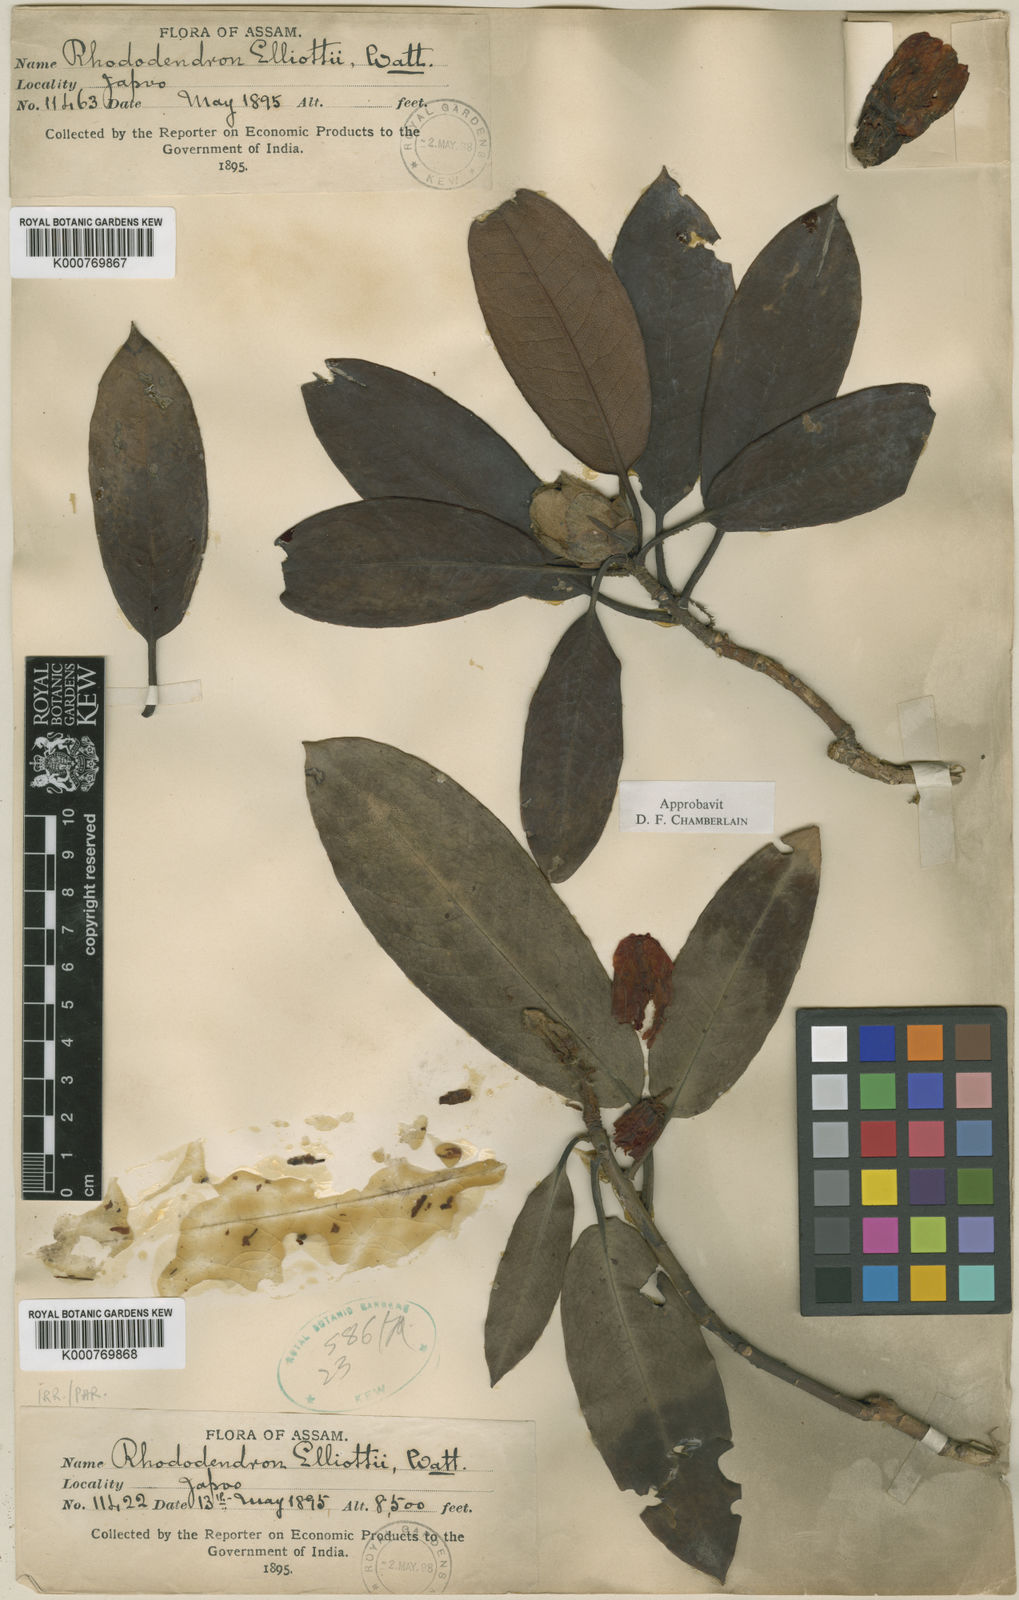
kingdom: Plantae
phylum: Tracheophyta
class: Magnoliopsida
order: Ericales
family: Ericaceae
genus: Rhododendron
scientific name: Rhododendron
